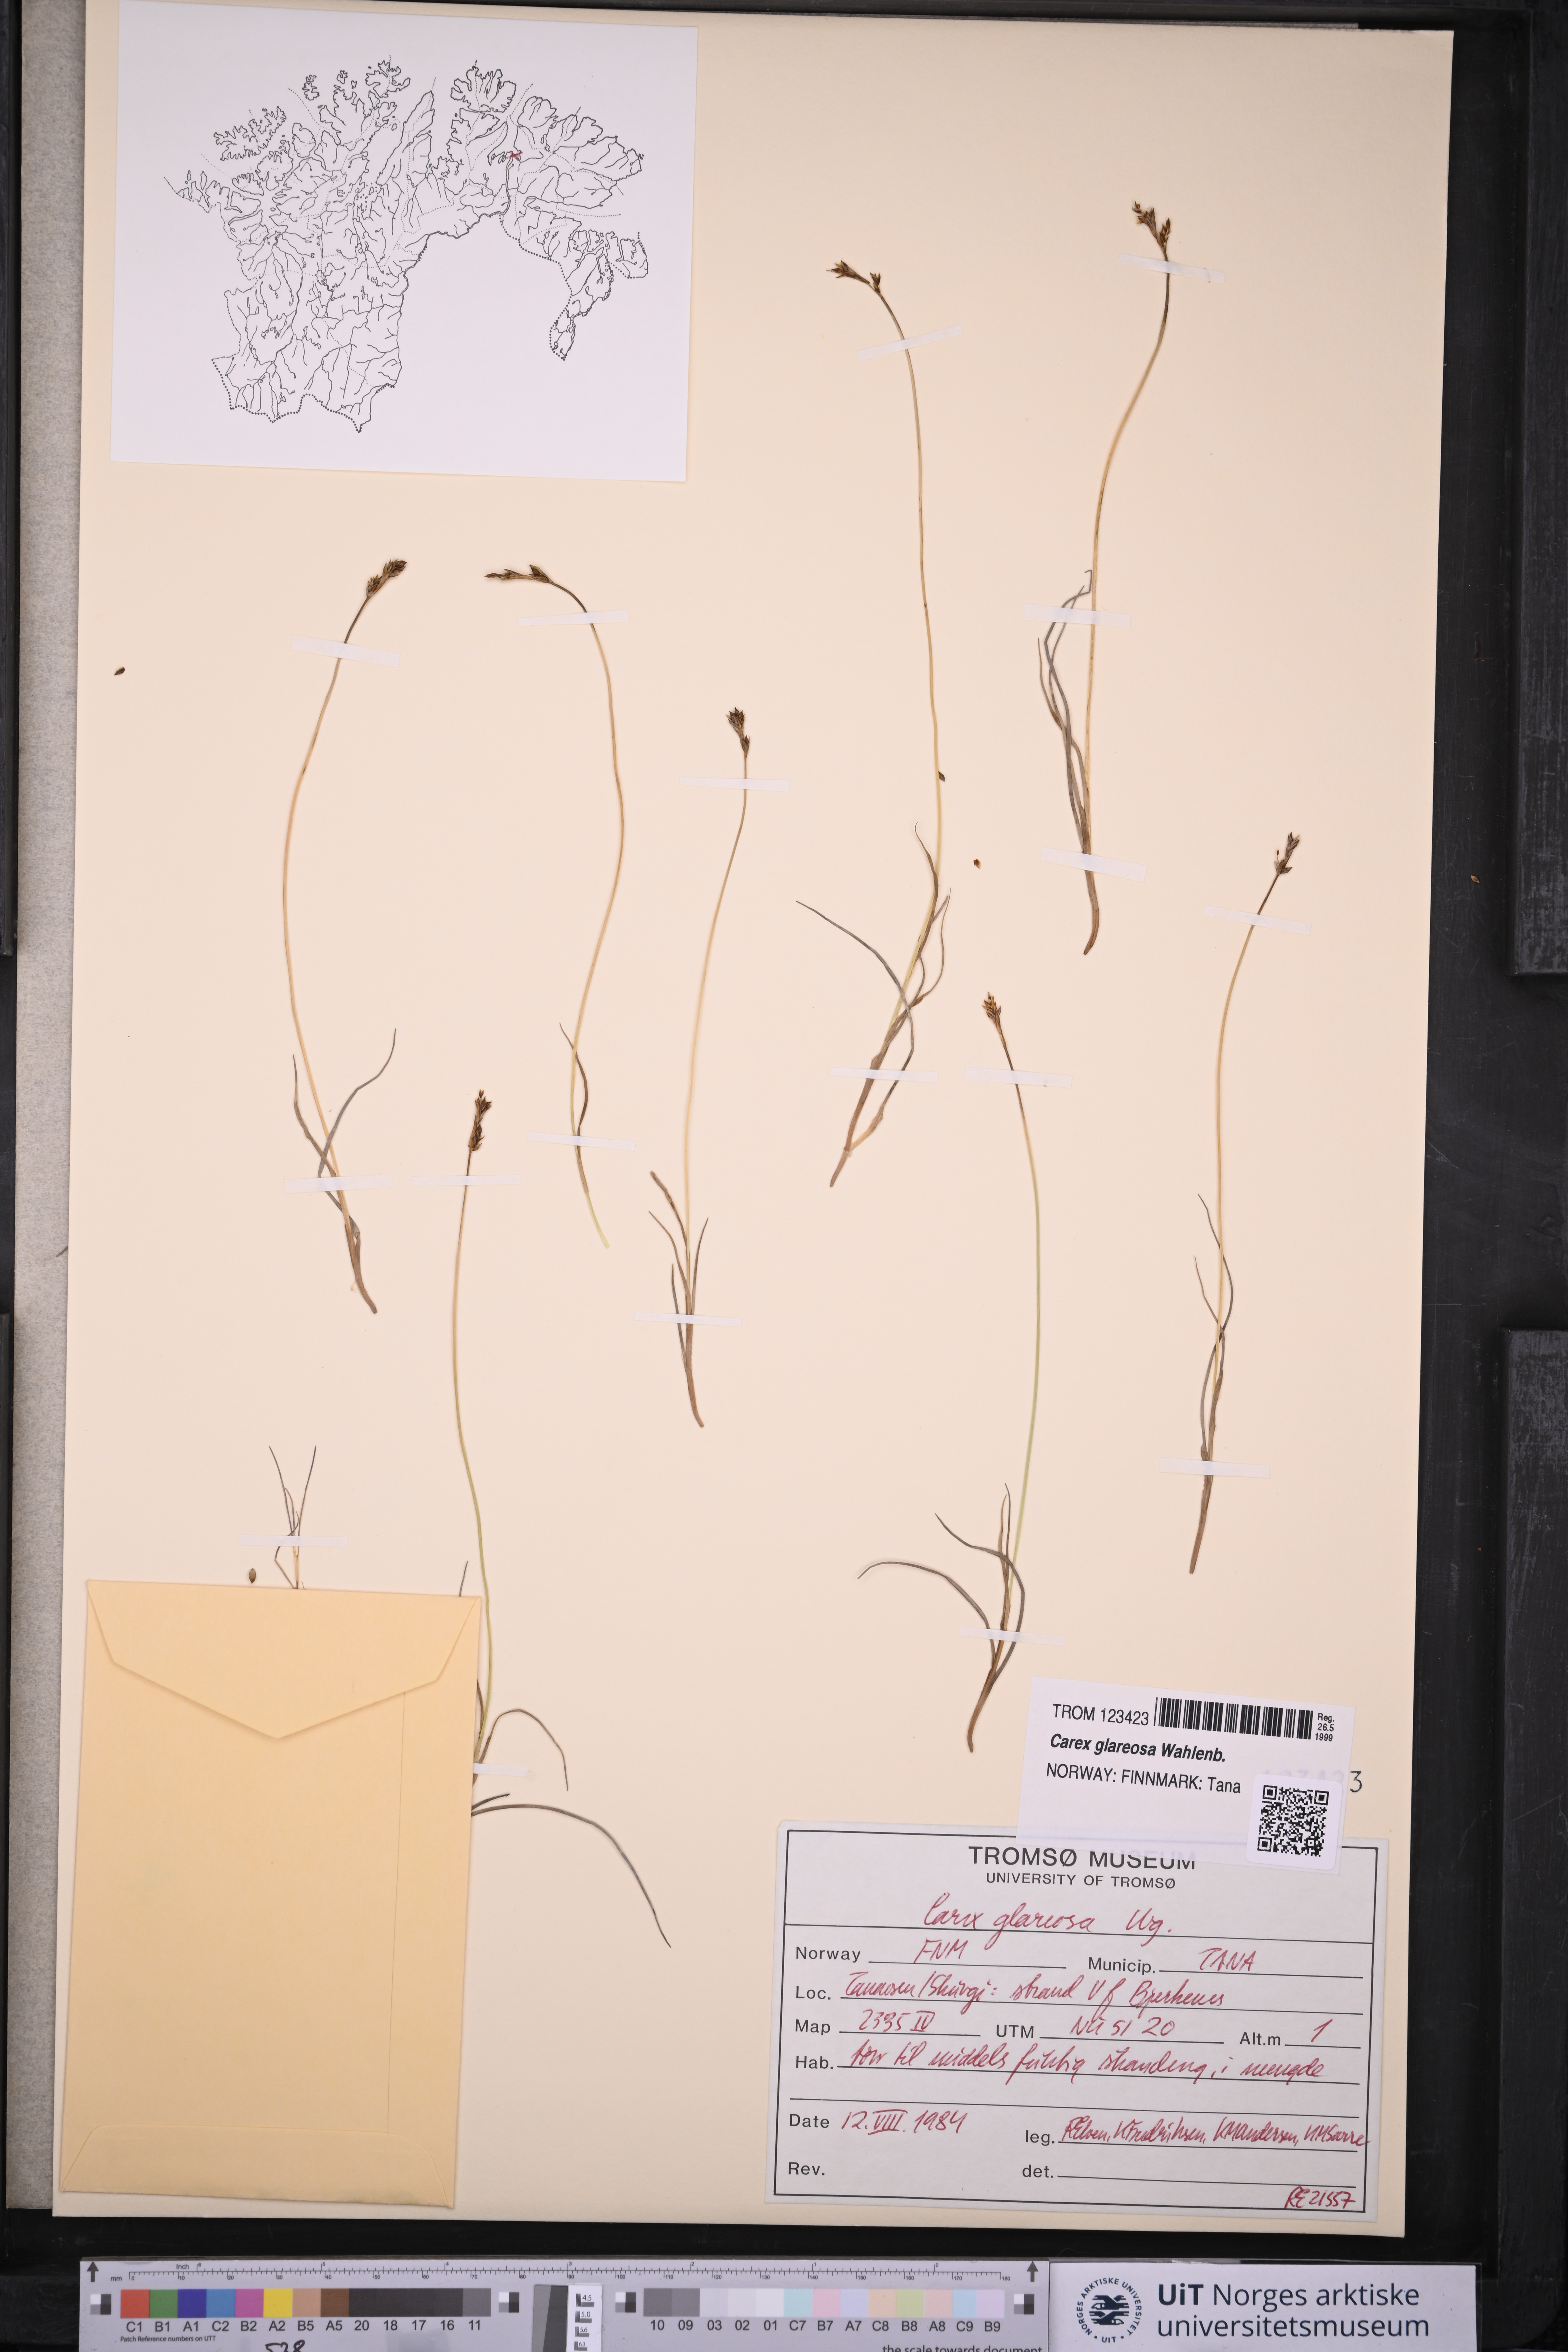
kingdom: Plantae
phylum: Tracheophyta
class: Liliopsida
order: Poales
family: Cyperaceae
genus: Carex
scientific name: Carex glareosa
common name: Clustered sedge
